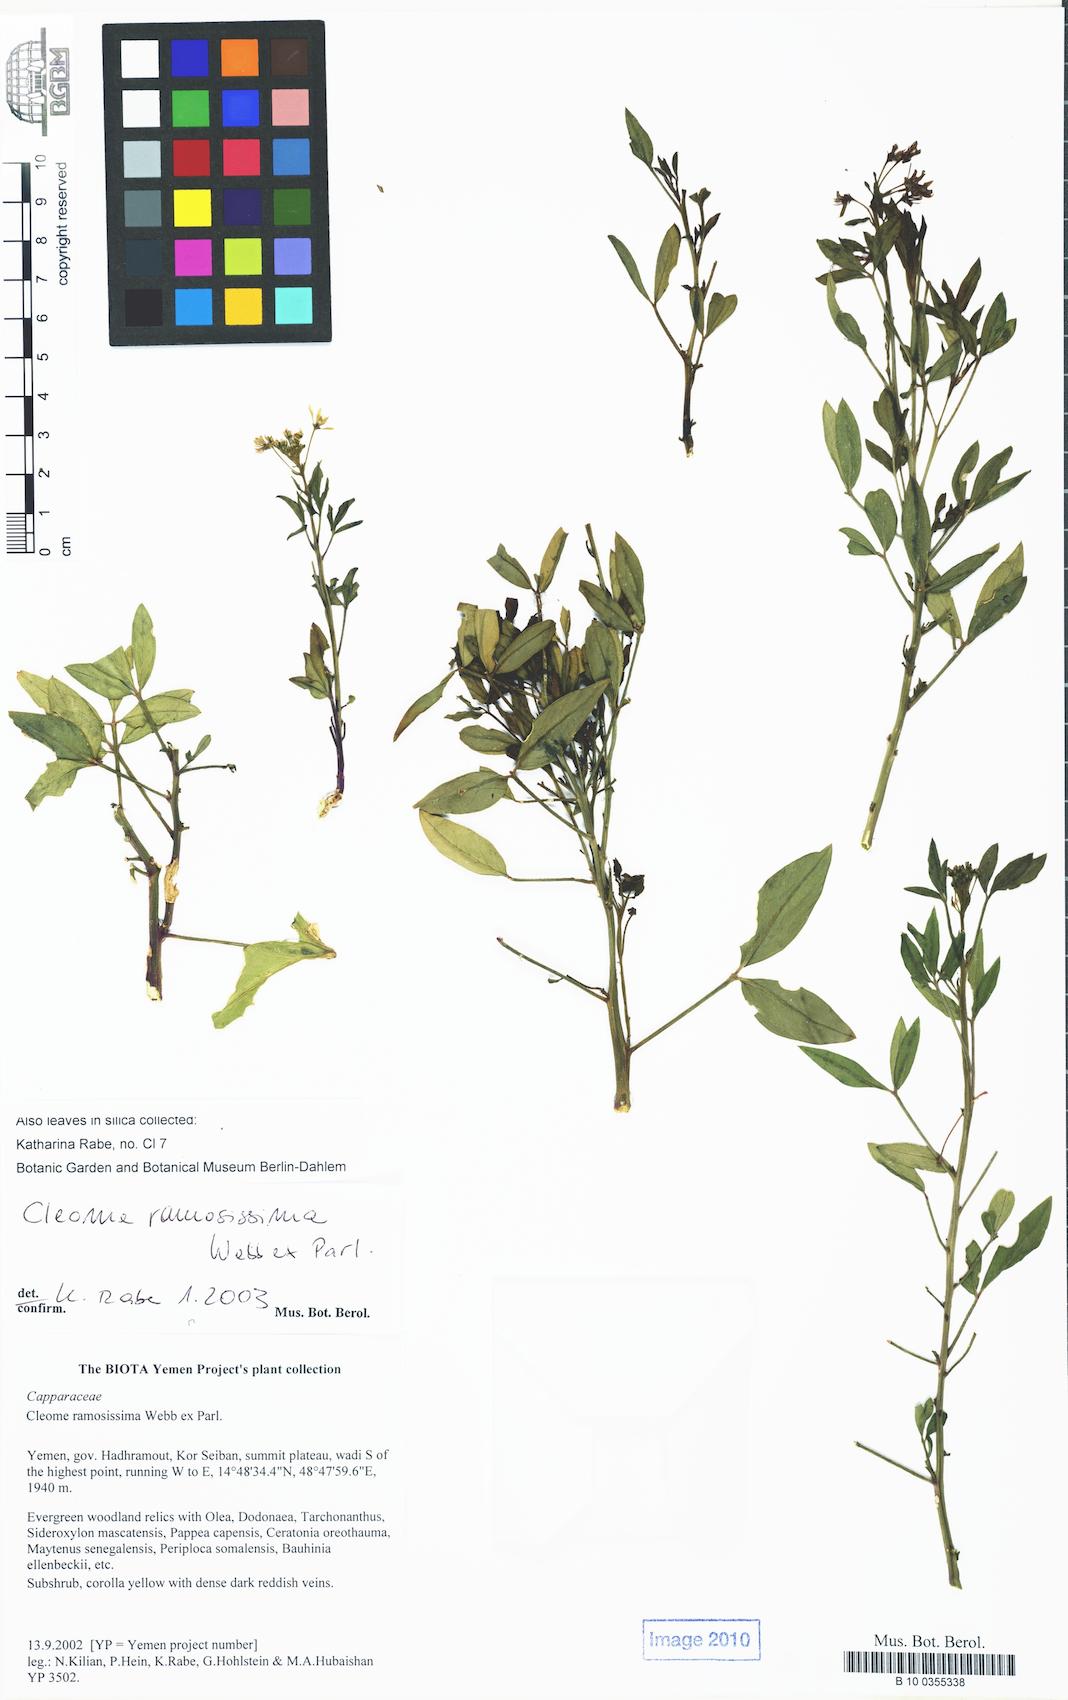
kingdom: Plantae
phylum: Tracheophyta
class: Magnoliopsida
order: Brassicales
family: Cleomaceae
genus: Cleome
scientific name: Cleome ramosissima
